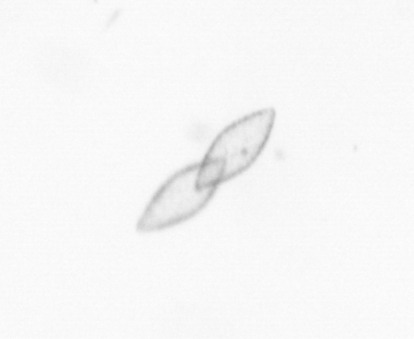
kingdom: Chromista
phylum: Ochrophyta
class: Bacillariophyceae
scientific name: Bacillariophyceae
